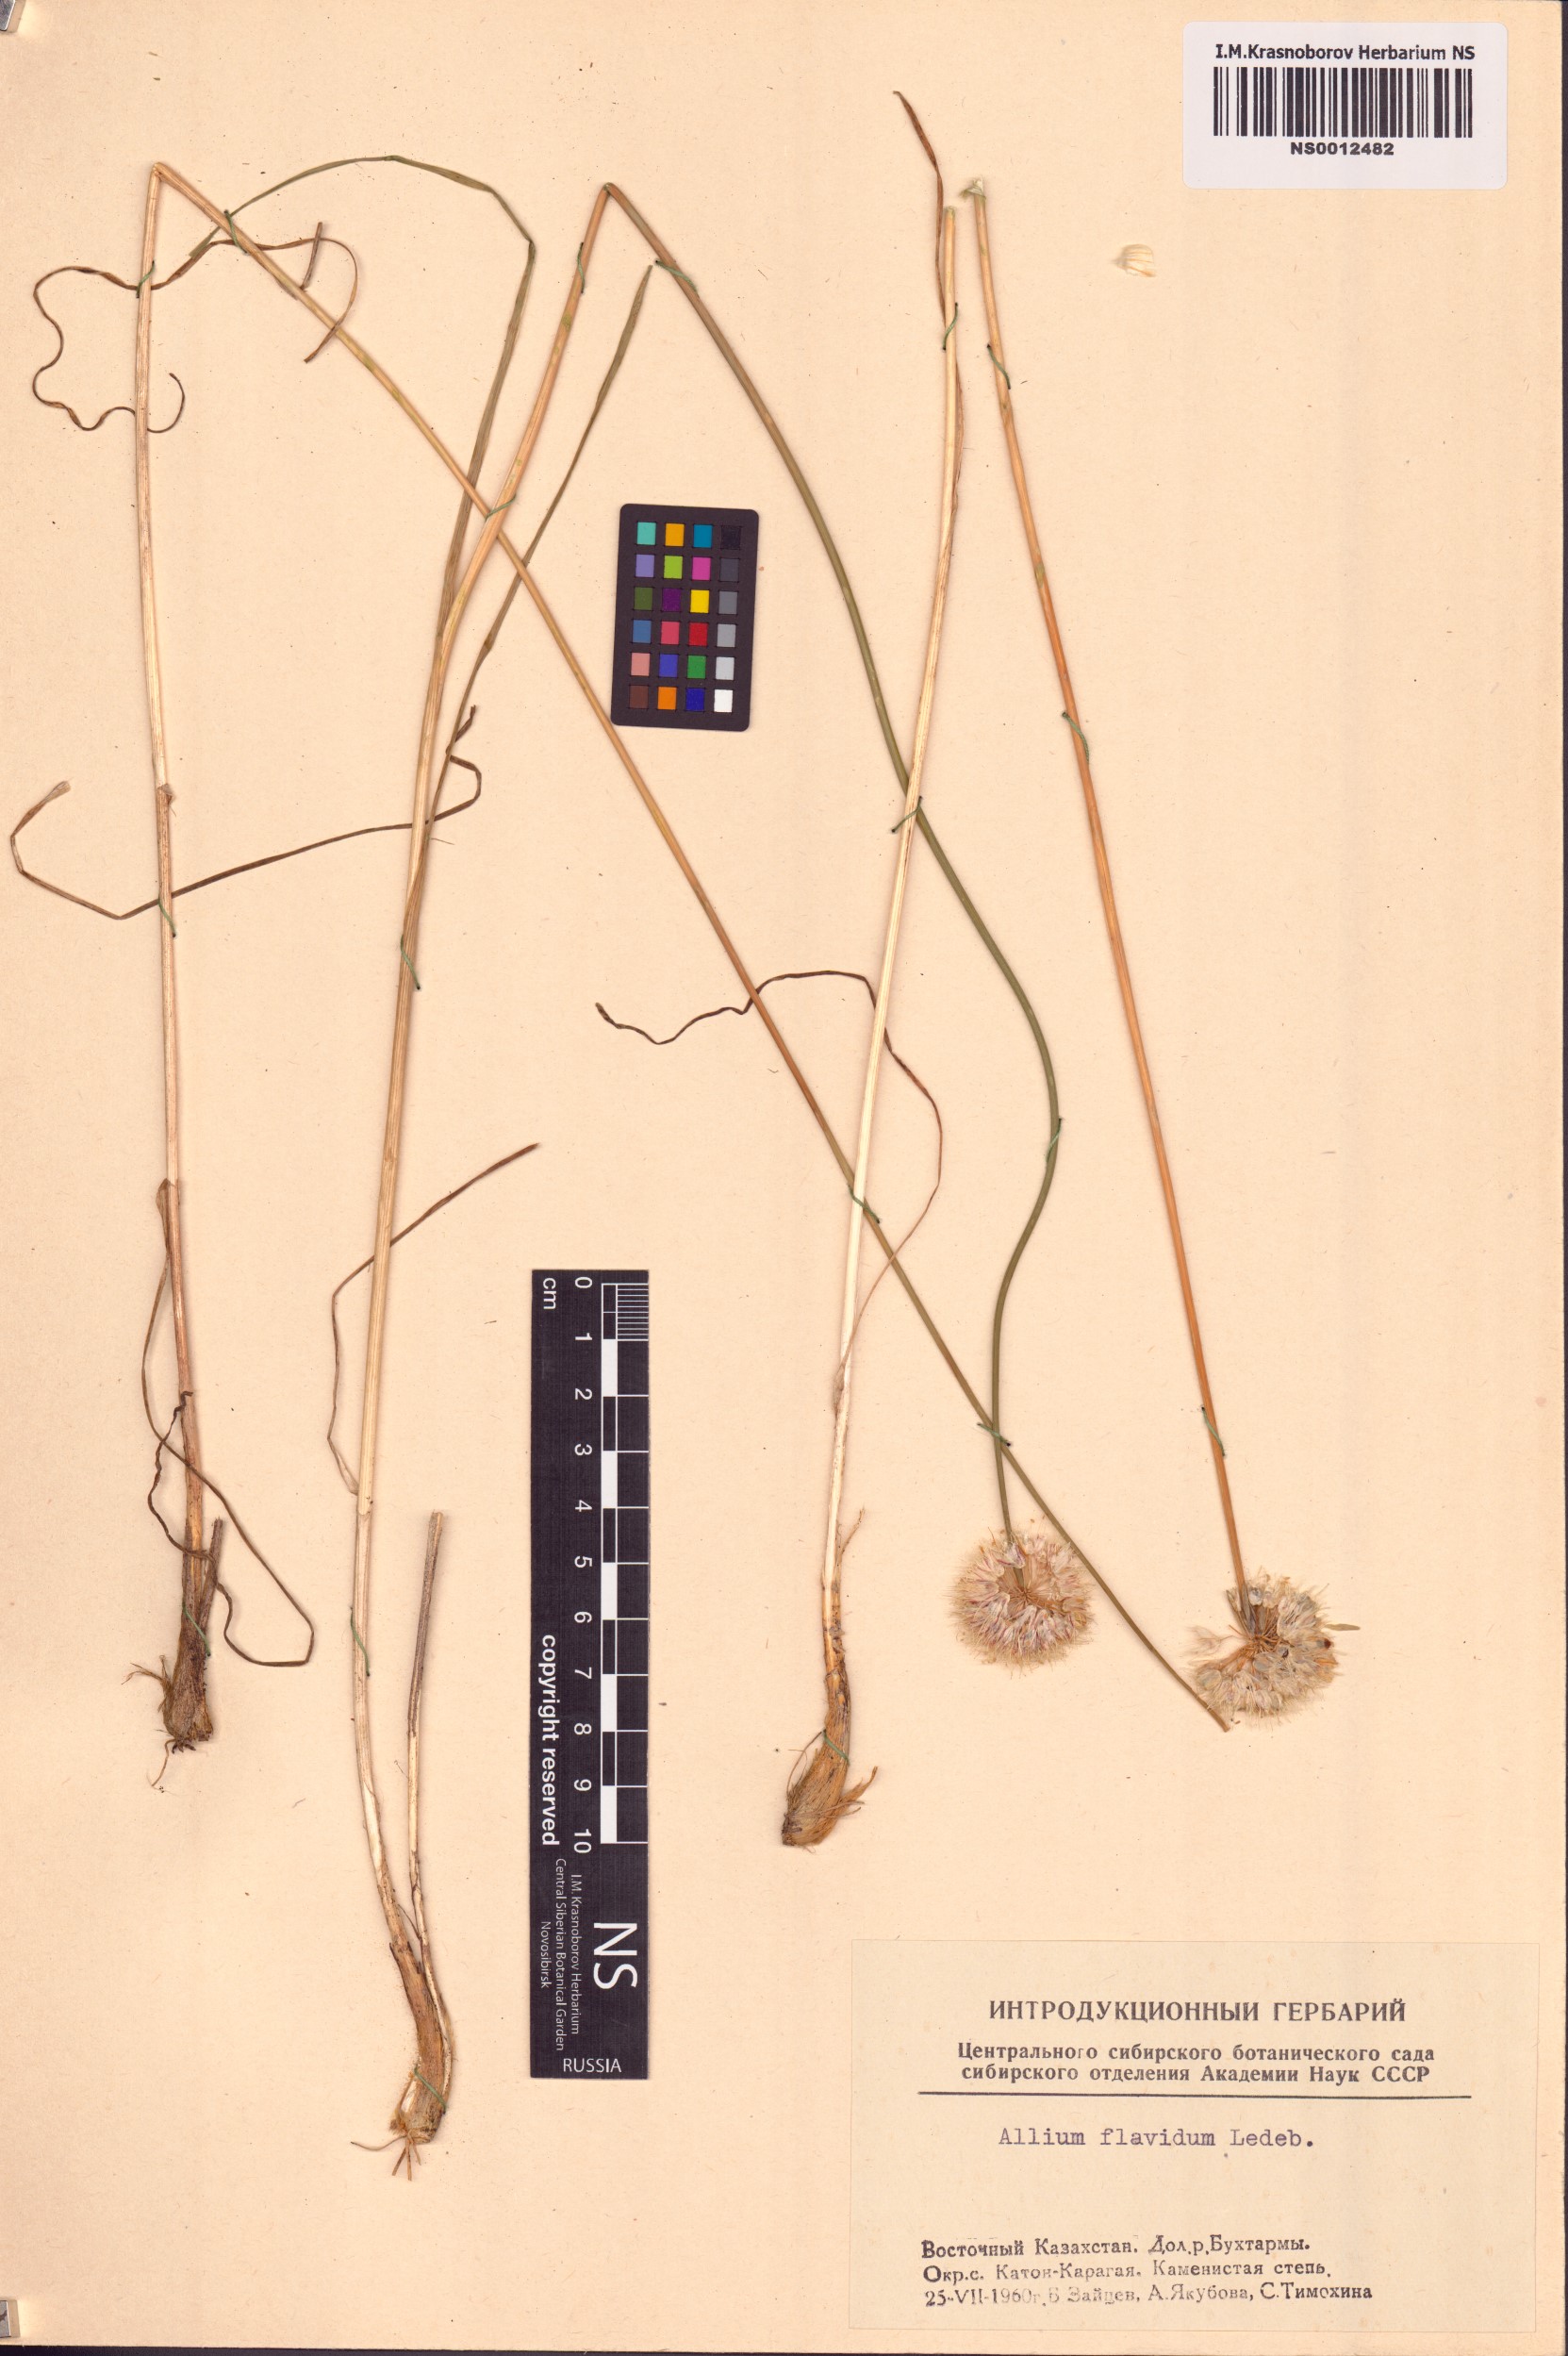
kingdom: Plantae
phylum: Tracheophyta
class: Liliopsida
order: Asparagales
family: Amaryllidaceae
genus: Allium
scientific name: Allium flavidum
